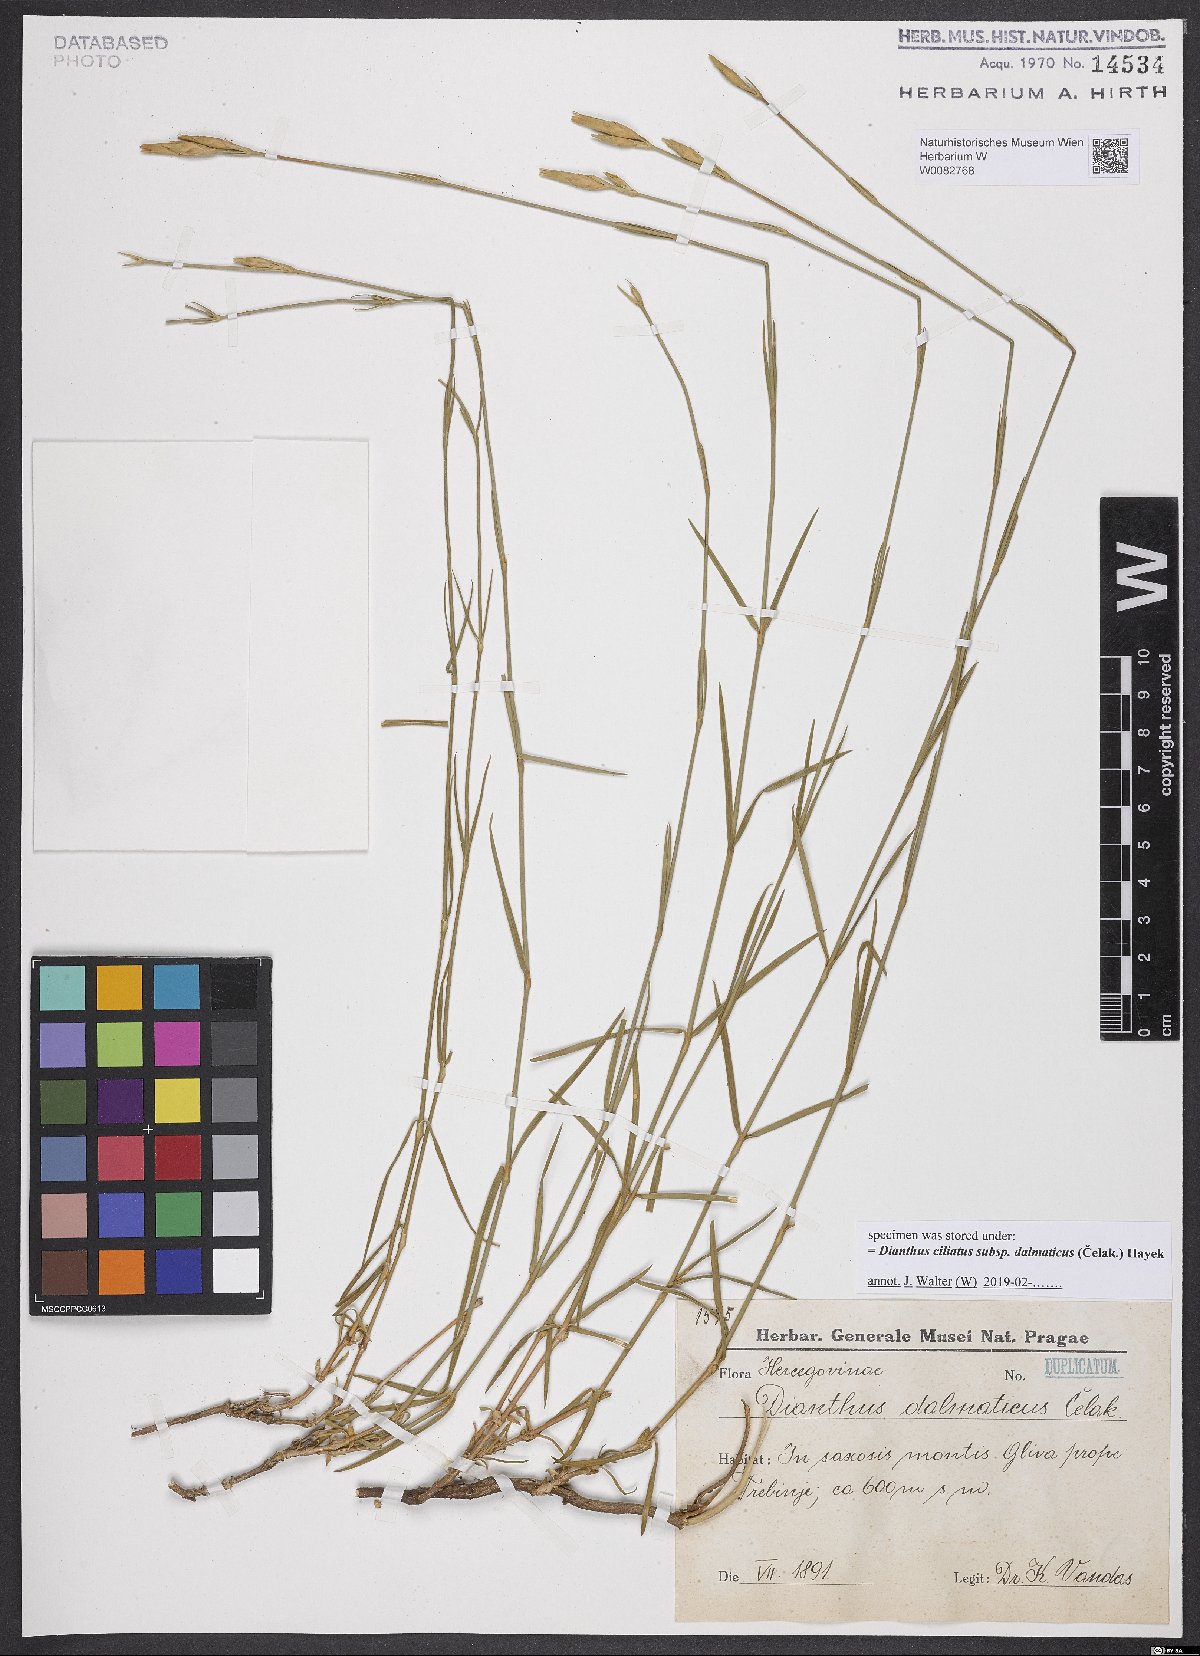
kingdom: Plantae
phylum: Tracheophyta
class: Magnoliopsida
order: Caryophyllales
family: Caryophyllaceae
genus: Dianthus
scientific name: Dianthus ciliatus
